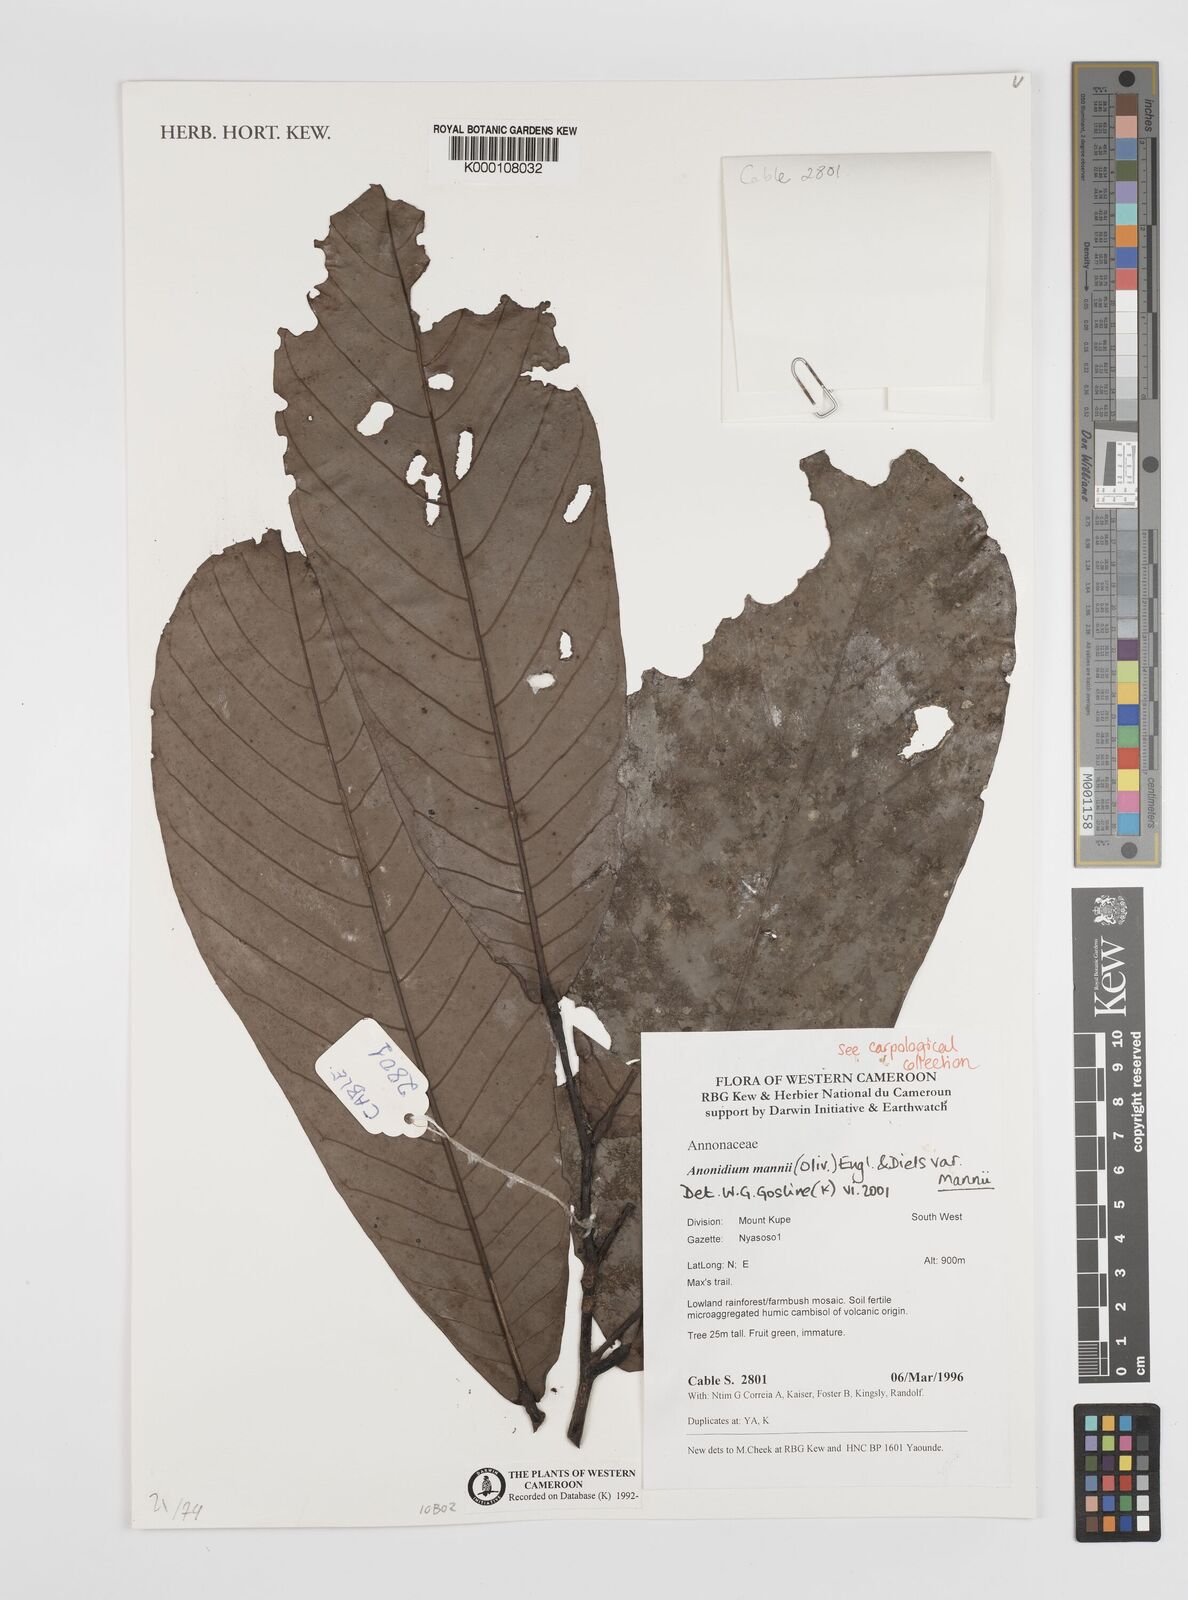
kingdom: Plantae
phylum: Tracheophyta
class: Magnoliopsida
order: Magnoliales
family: Annonaceae
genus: Anonidium
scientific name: Anonidium mannii
